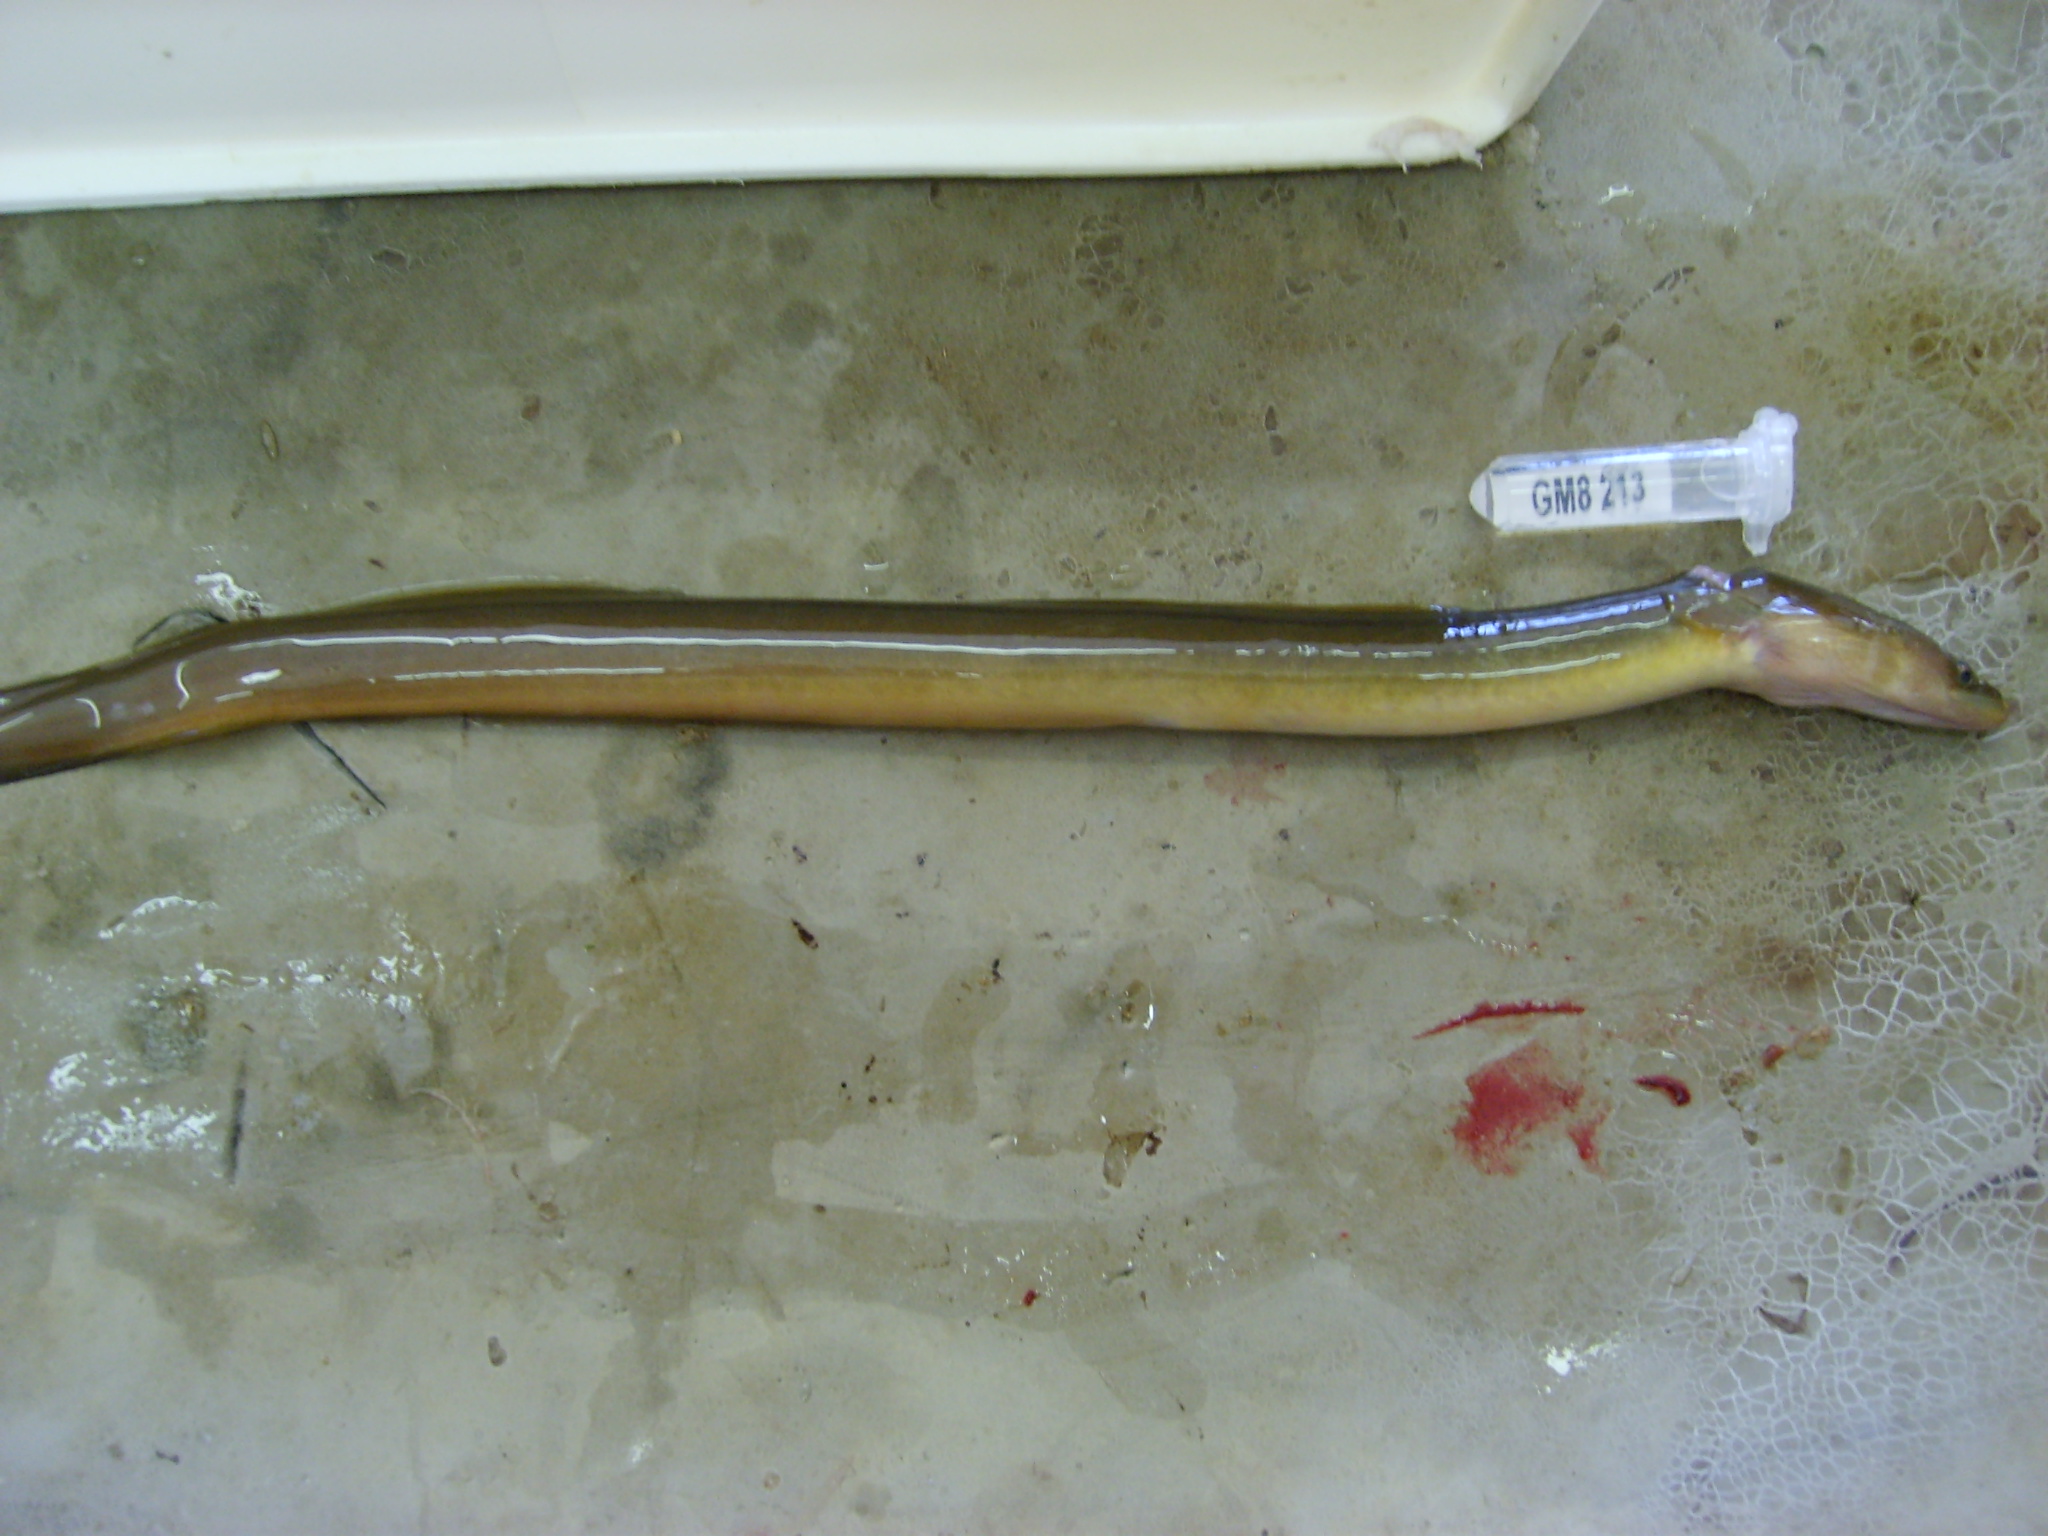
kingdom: Animalia
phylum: Chordata
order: Anguilliformes
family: Anguillidae
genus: Anguilla
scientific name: Anguilla mossambica
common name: African longfin eel
